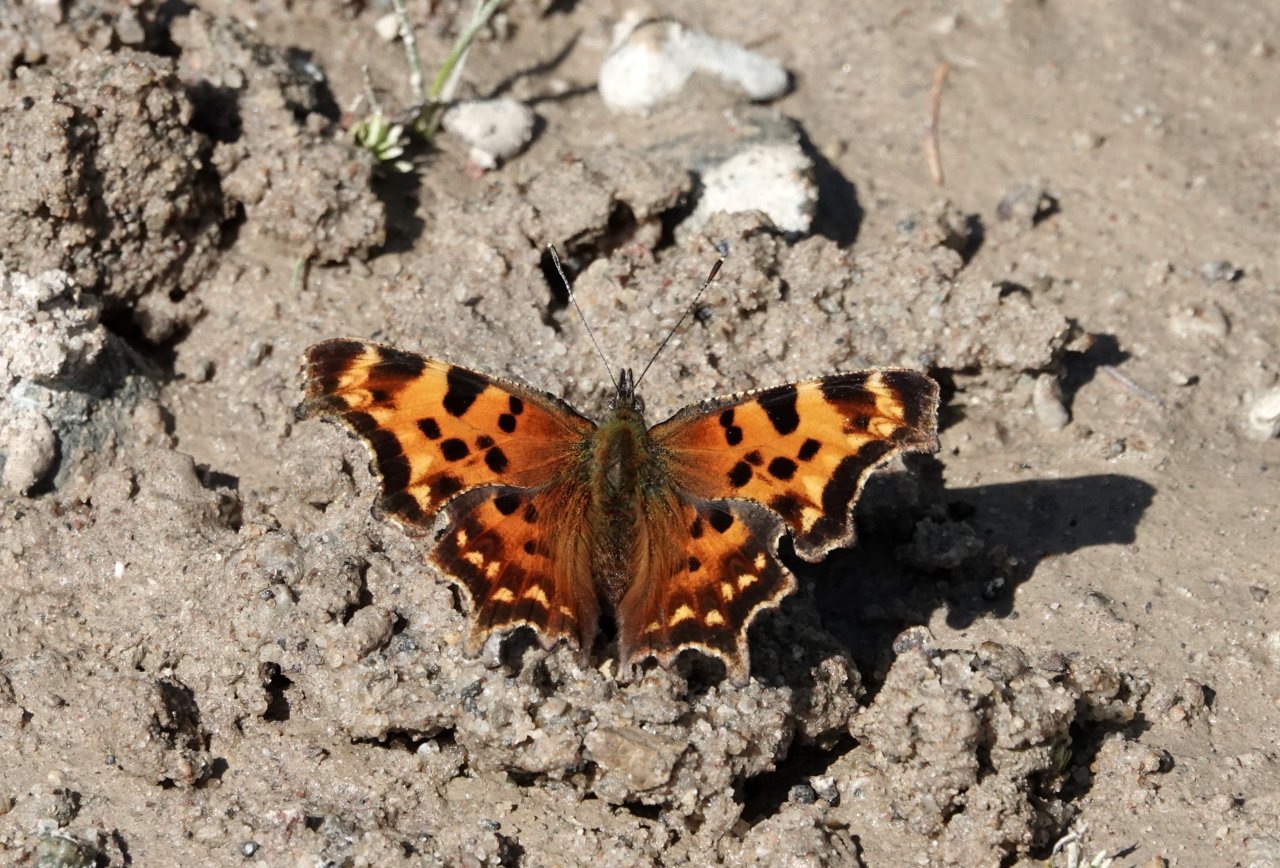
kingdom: Animalia
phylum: Arthropoda
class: Insecta
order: Lepidoptera
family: Nymphalidae
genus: Polygonia
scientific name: Polygonia faunus
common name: Green Comma
